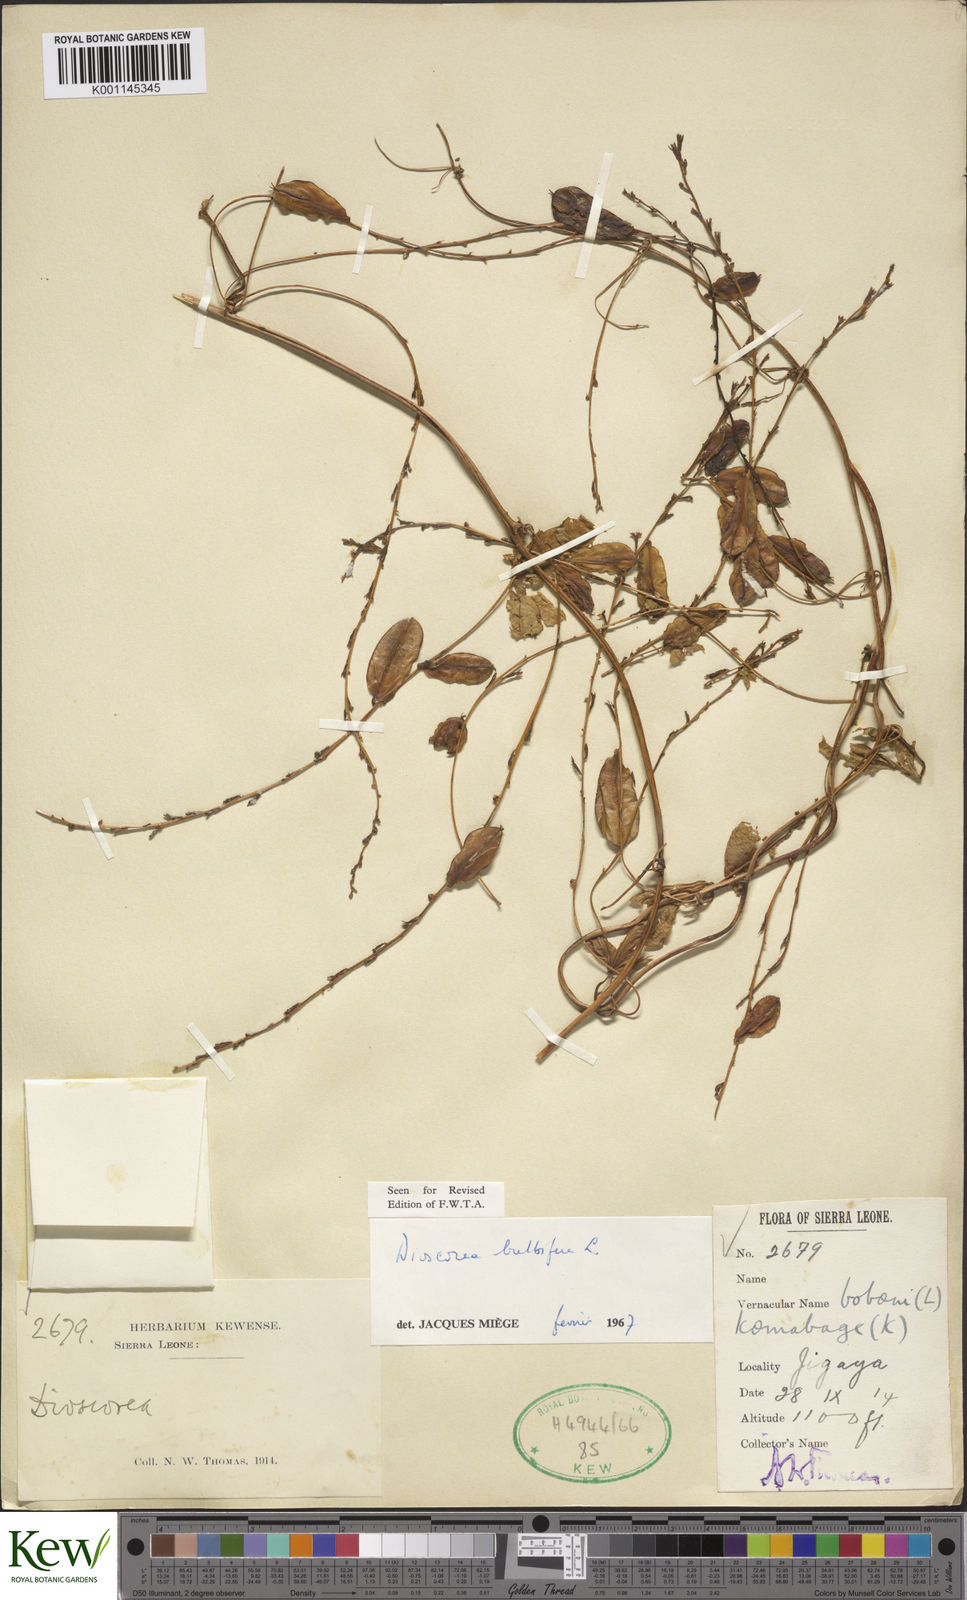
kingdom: Plantae
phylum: Tracheophyta
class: Liliopsida
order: Dioscoreales
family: Dioscoreaceae
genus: Dioscorea
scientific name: Dioscorea bulbifera
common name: Air yam
